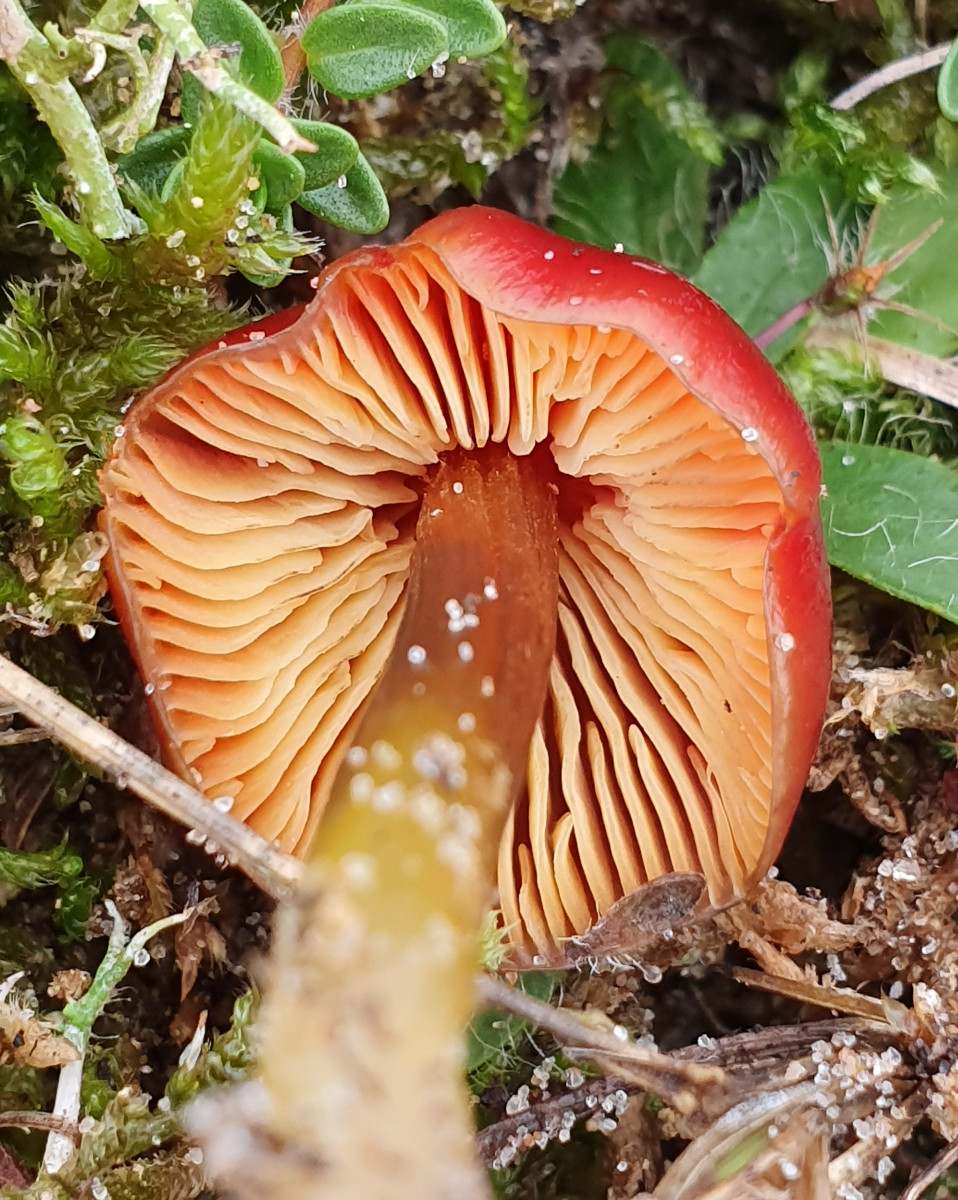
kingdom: Fungi
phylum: Basidiomycota
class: Agaricomycetes
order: Agaricales
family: Hygrophoraceae
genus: Hygrocybe
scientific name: Hygrocybe conica
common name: kegle-vokshat
